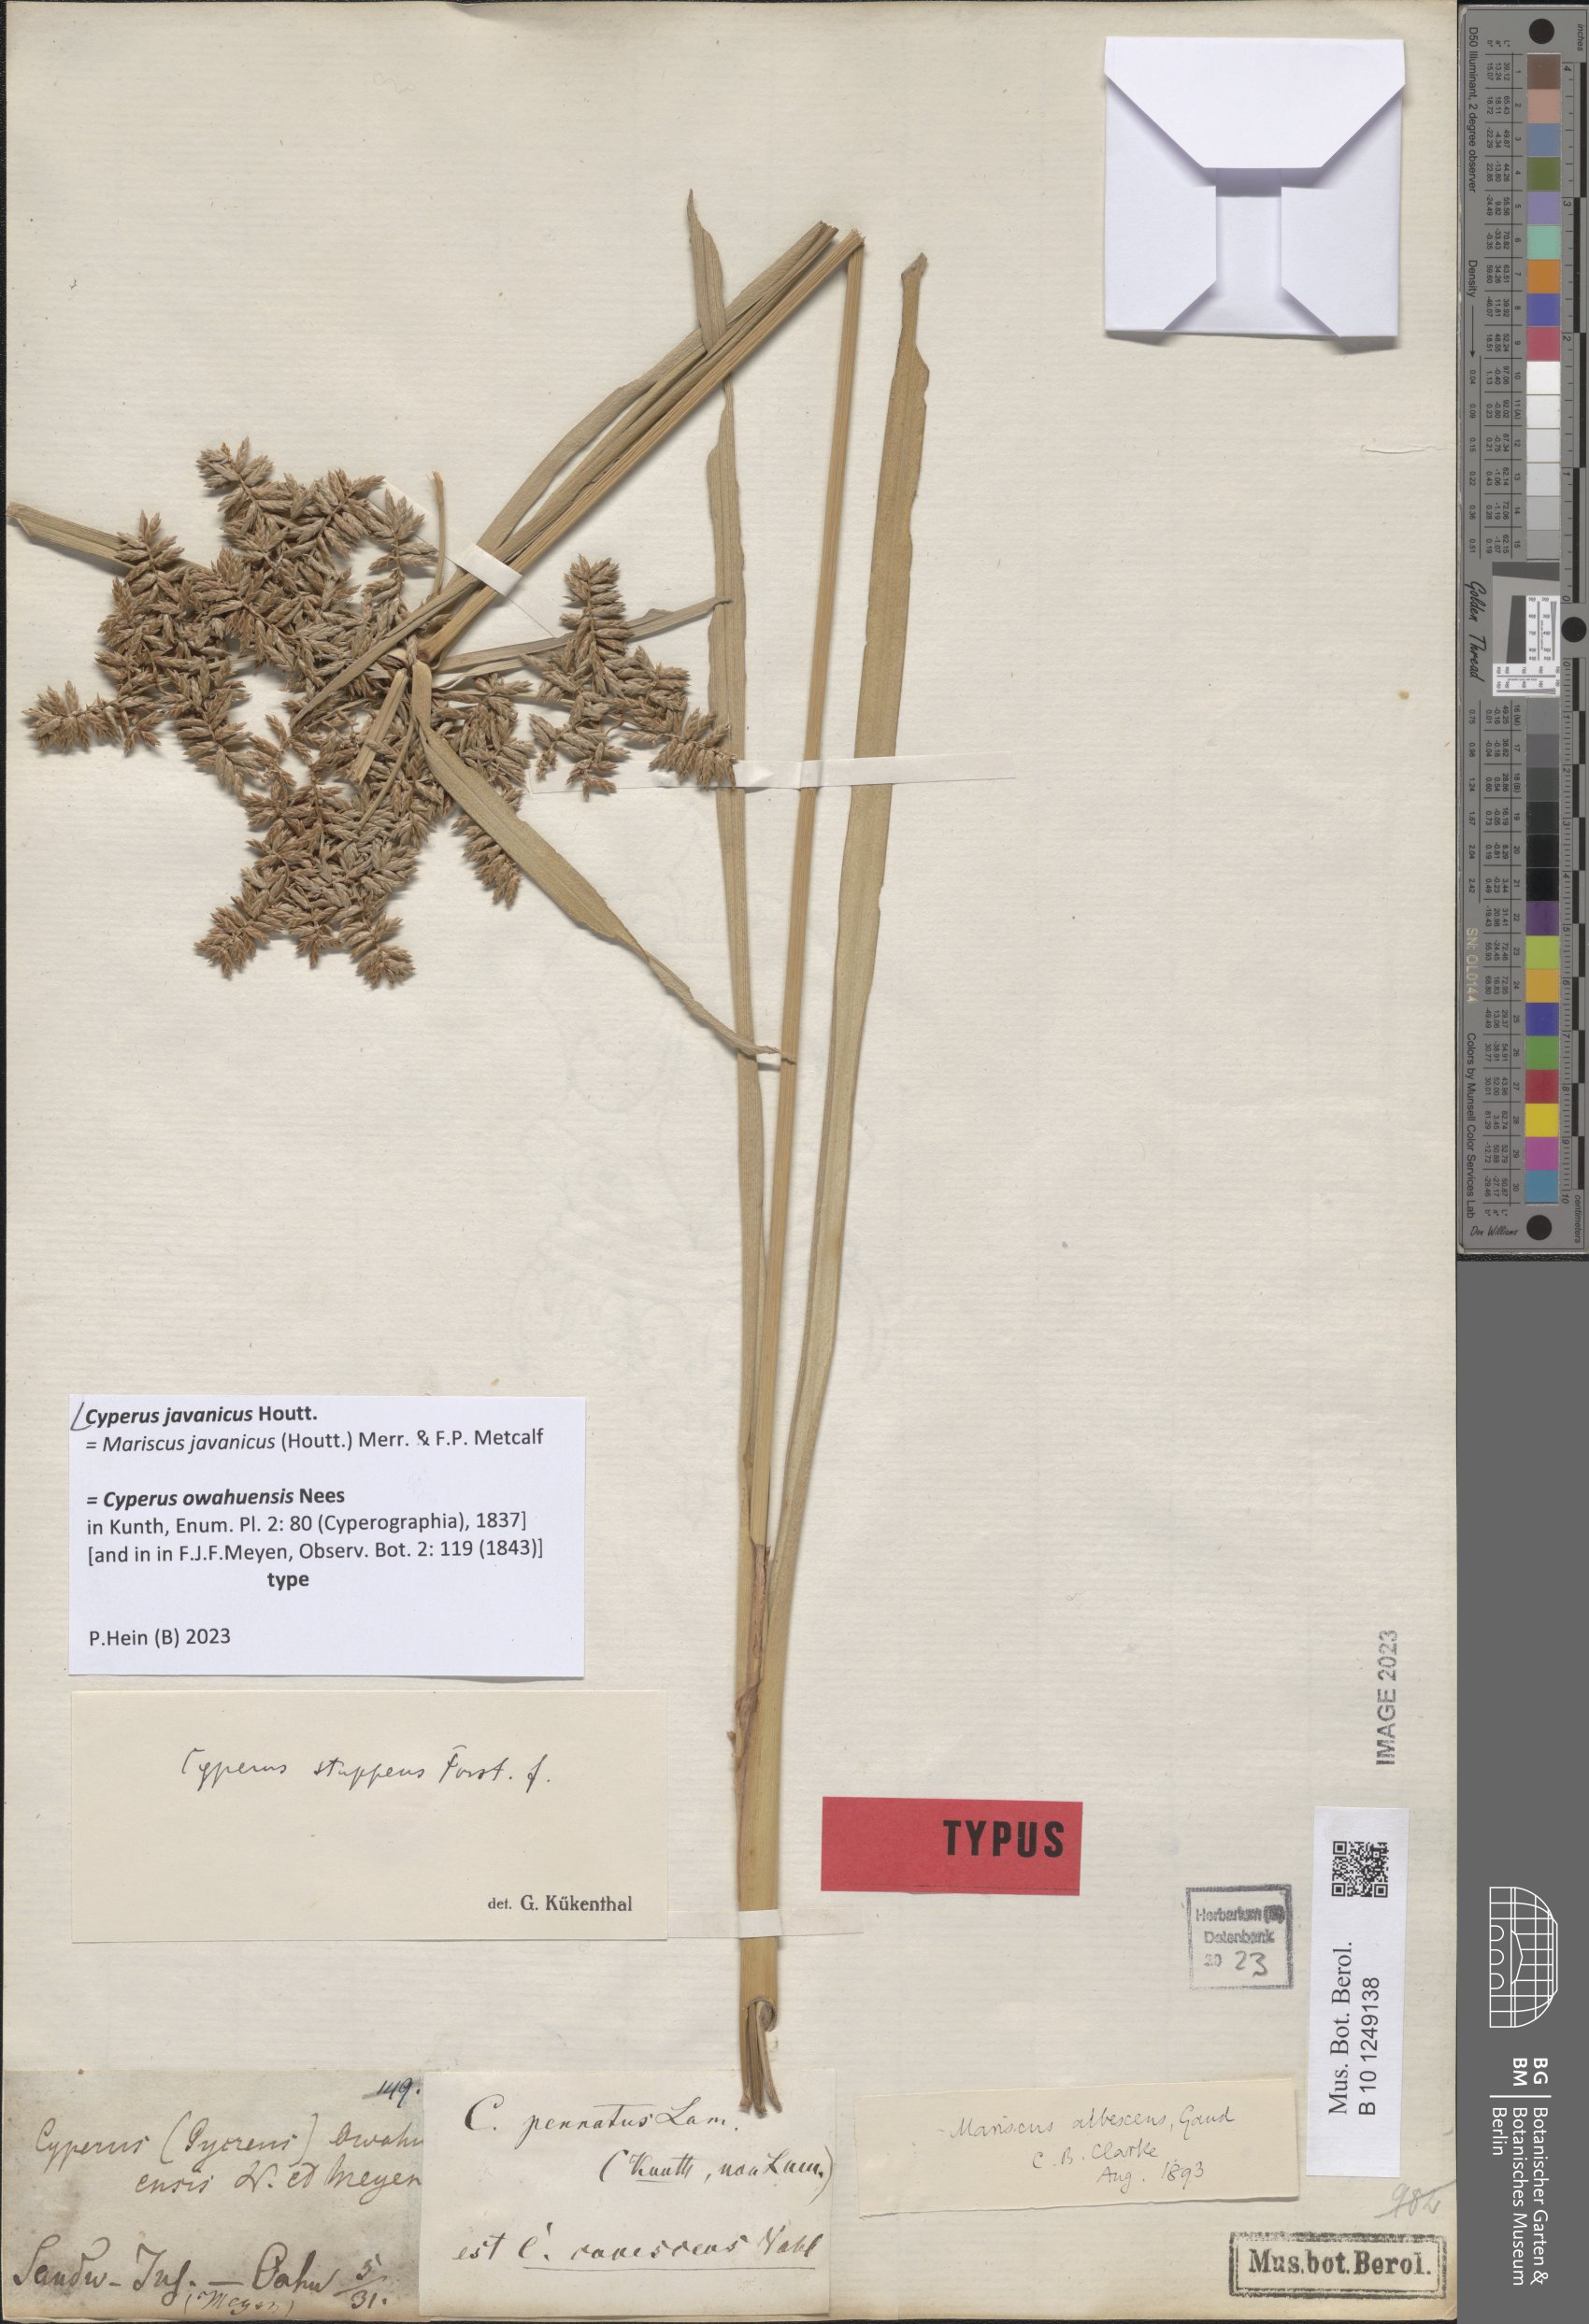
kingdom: Plantae
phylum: Tracheophyta
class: Liliopsida
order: Poales
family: Cyperaceae
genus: Cyperus
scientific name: Cyperus javanicus
